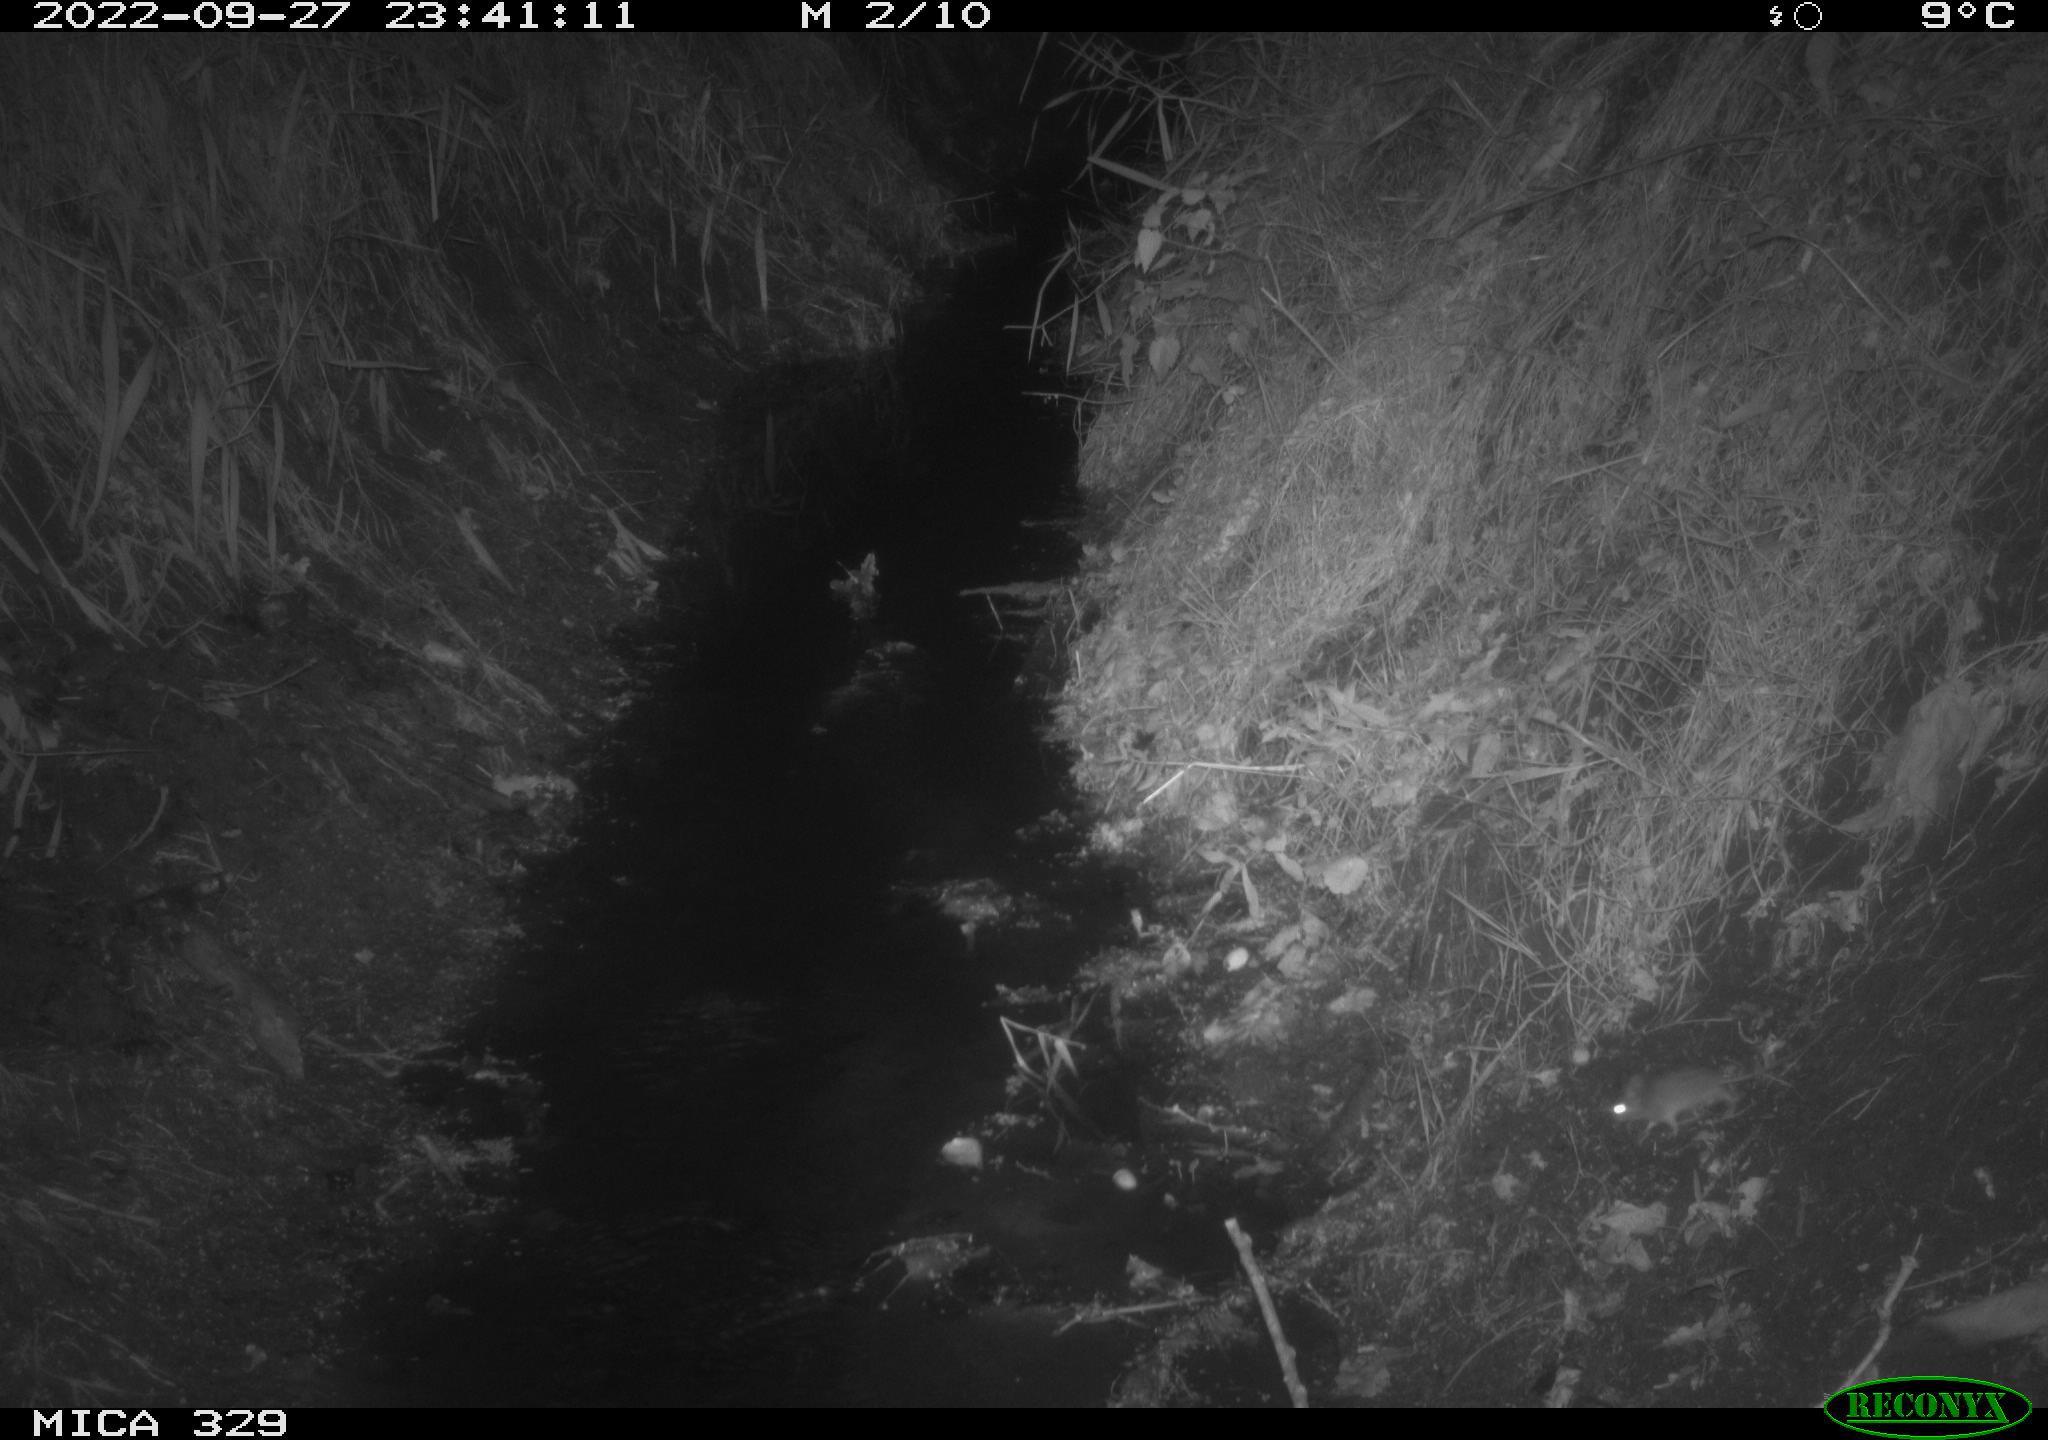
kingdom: Animalia
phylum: Chordata
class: Mammalia
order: Rodentia
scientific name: Rodentia
